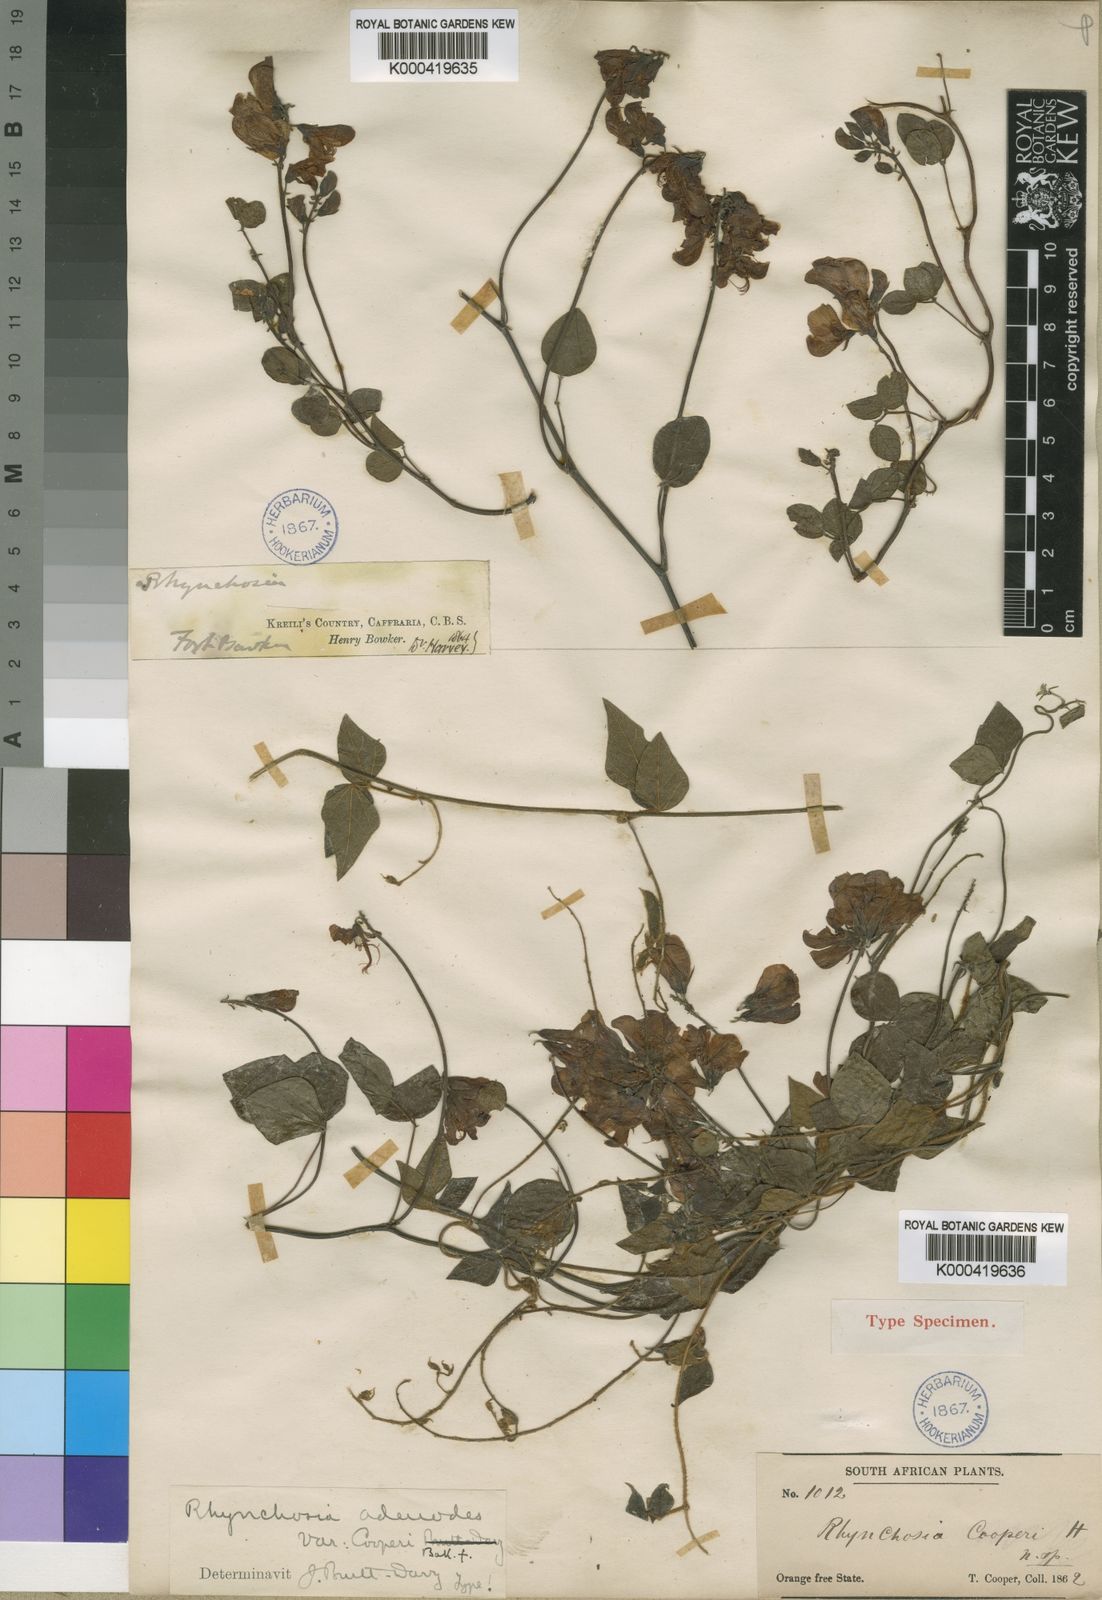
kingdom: Plantae
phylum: Tracheophyta
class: Magnoliopsida
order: Fabales
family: Fabaceae
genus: Rhynchosia
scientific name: Rhynchosia cooperi
